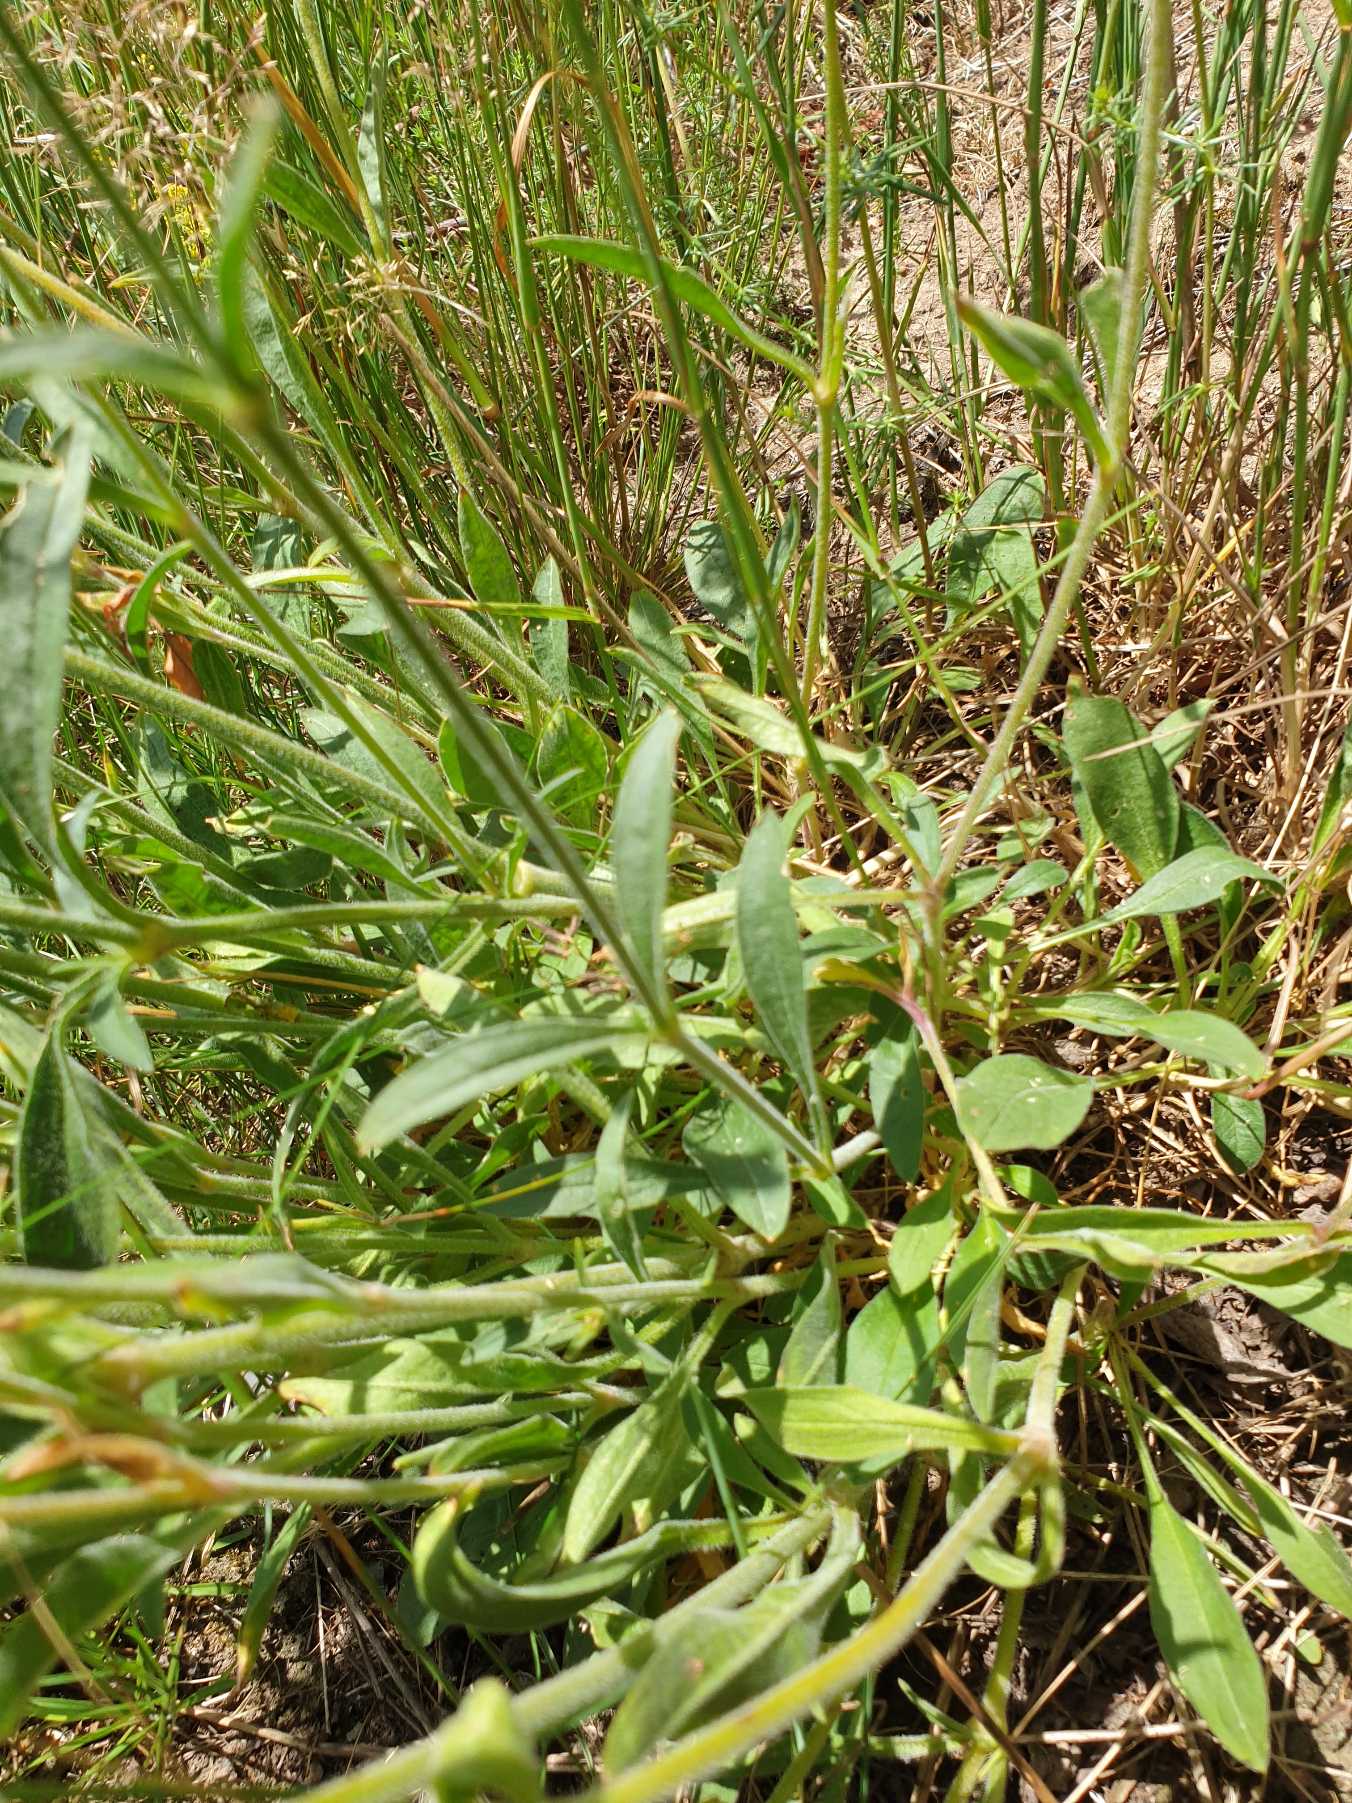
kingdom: Plantae
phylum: Tracheophyta
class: Magnoliopsida
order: Caryophyllales
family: Caryophyllaceae
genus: Silene
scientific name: Silene nutans
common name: Nikkende limurt
